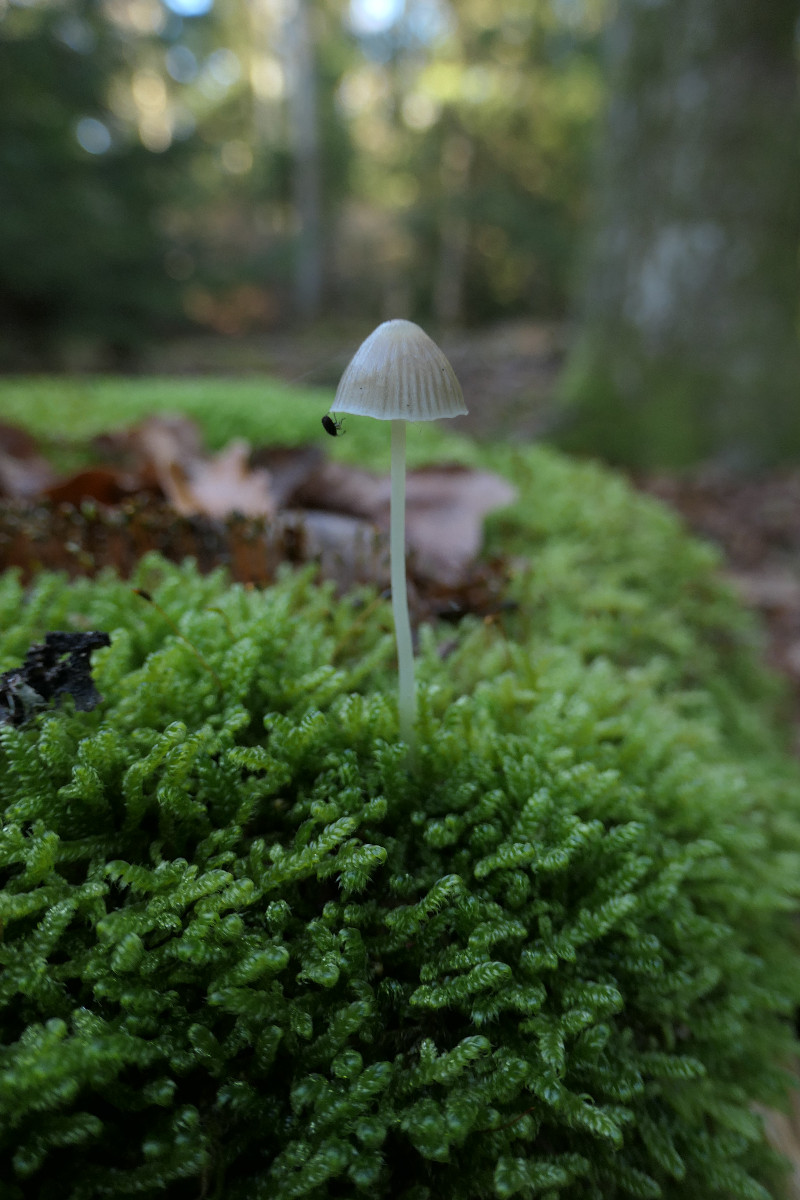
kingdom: Fungi
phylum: Basidiomycota
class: Agaricomycetes
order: Agaricales
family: Mycenaceae
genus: Mycena
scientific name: Mycena epipterygia
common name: gulstokket huesvamp
